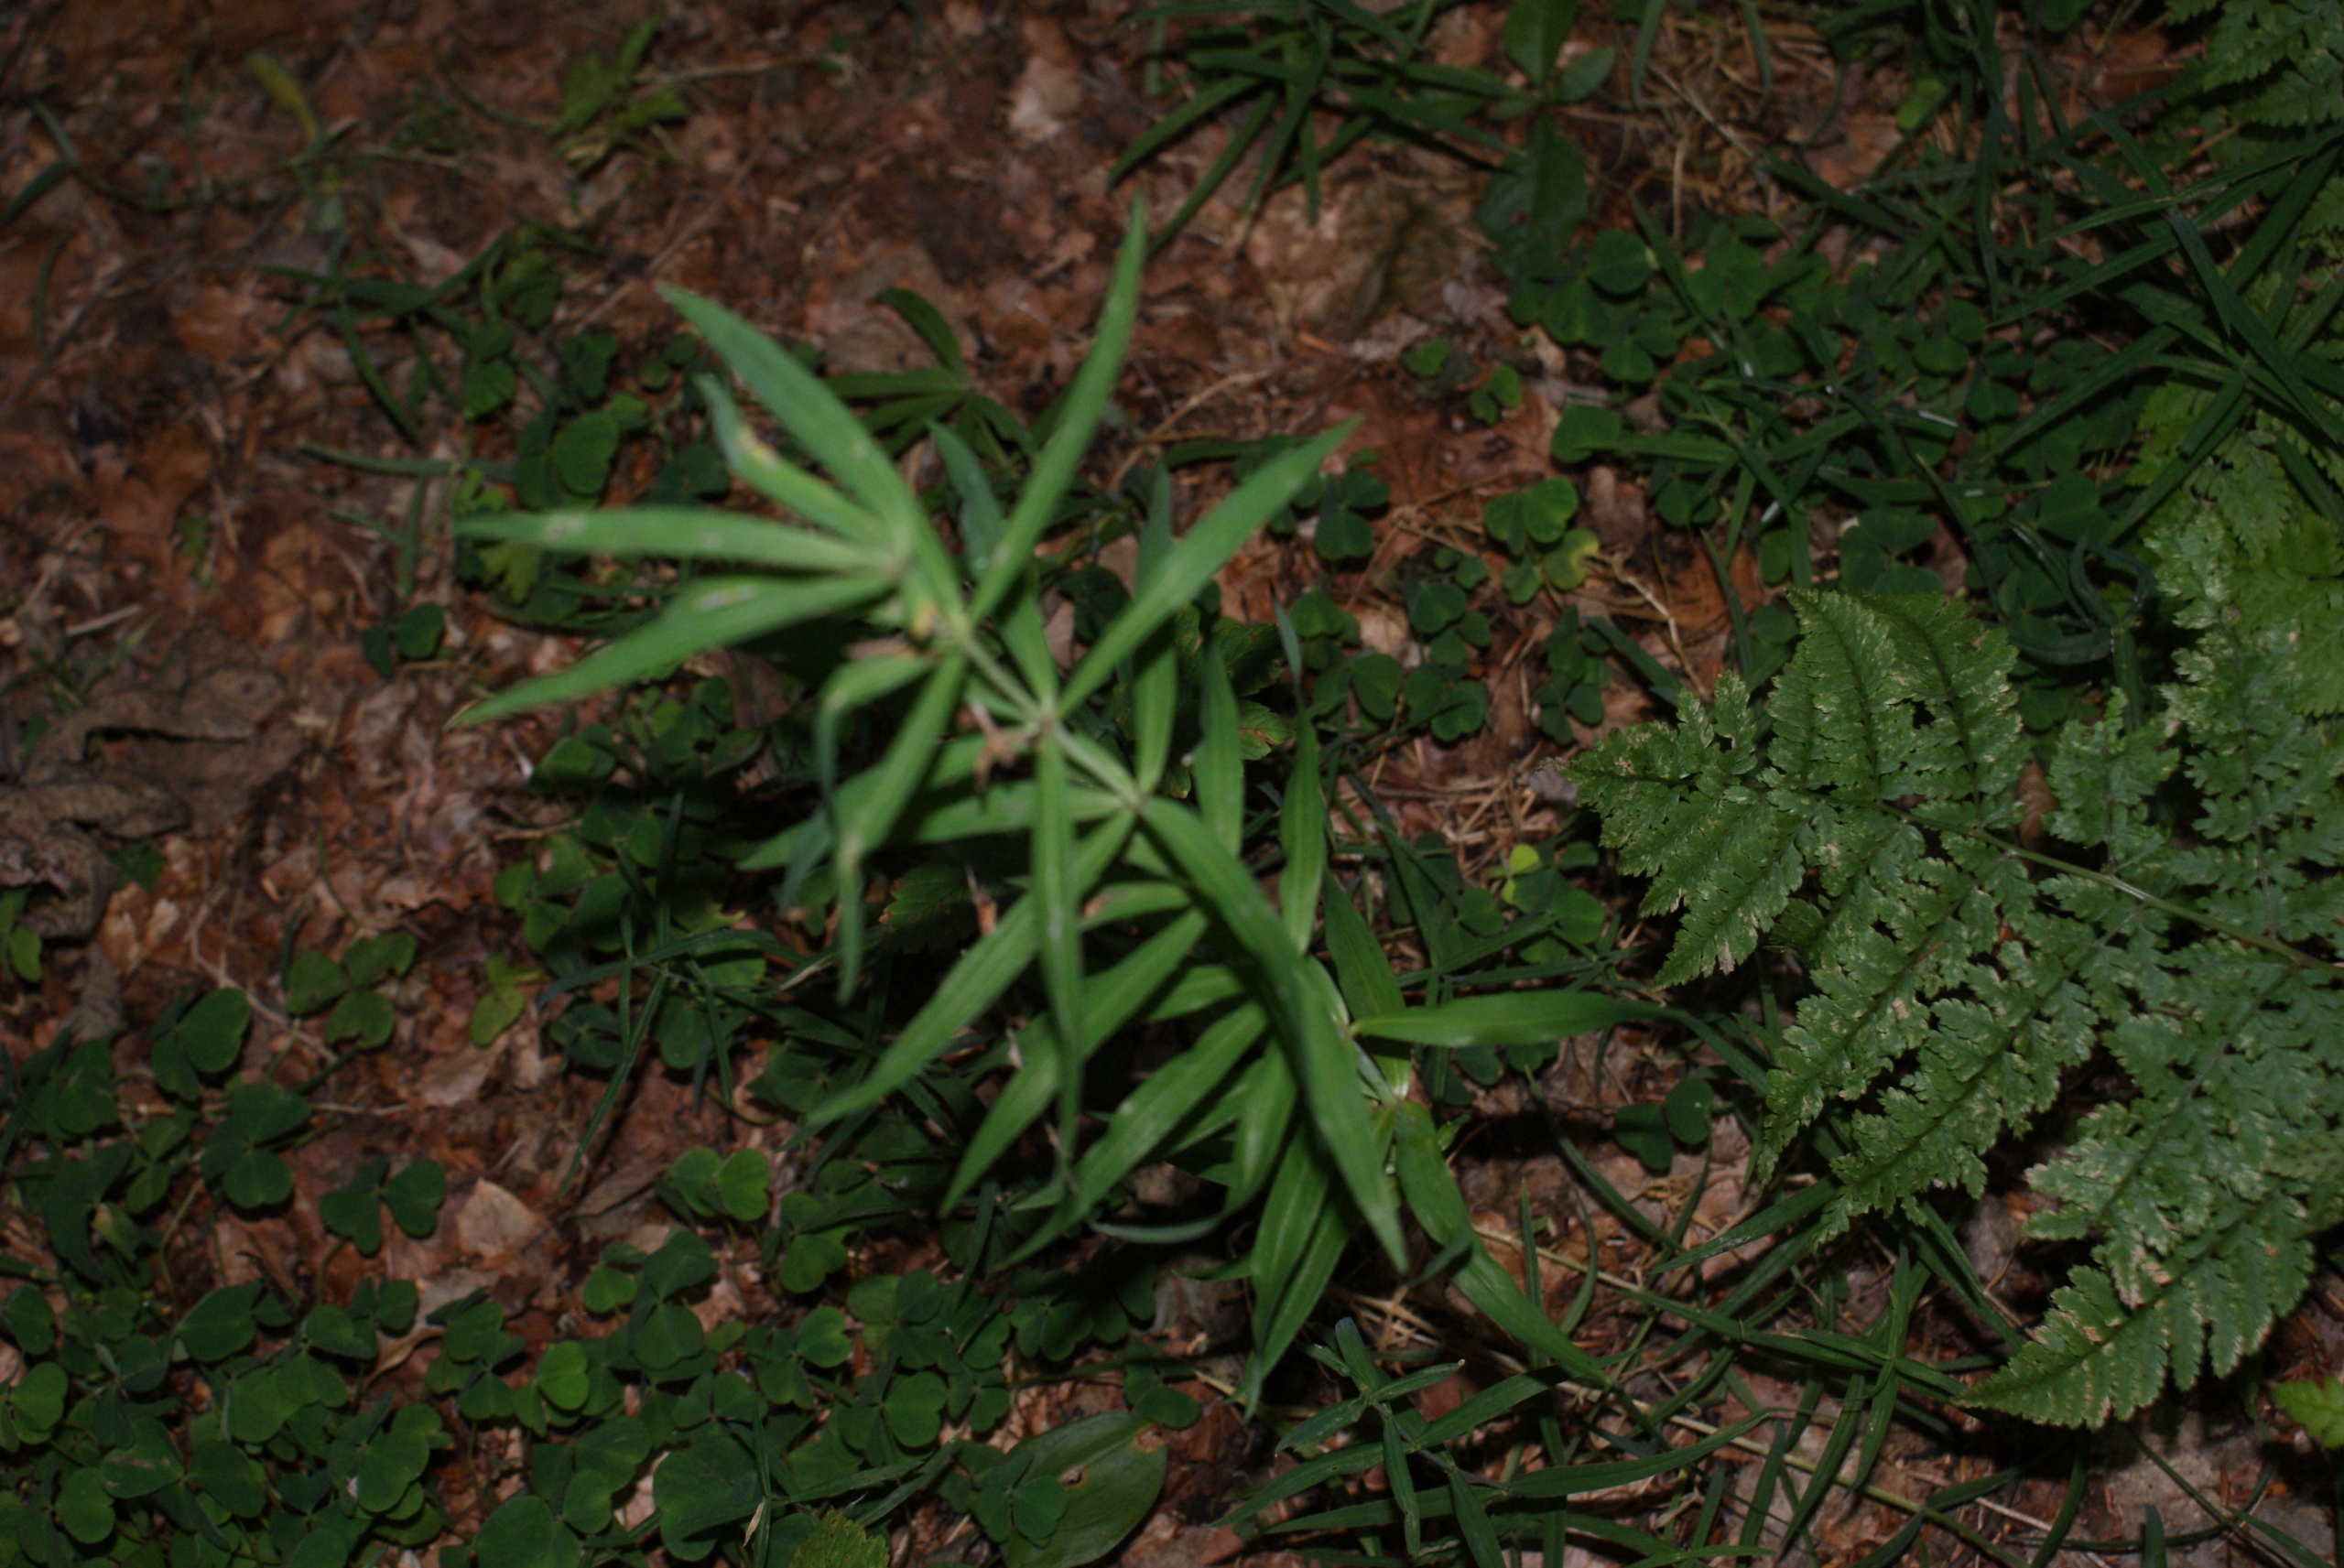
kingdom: Plantae
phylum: Tracheophyta
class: Liliopsida
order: Asparagales
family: Asparagaceae
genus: Polygonatum
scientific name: Polygonatum verticillatum
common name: Krans-konval
